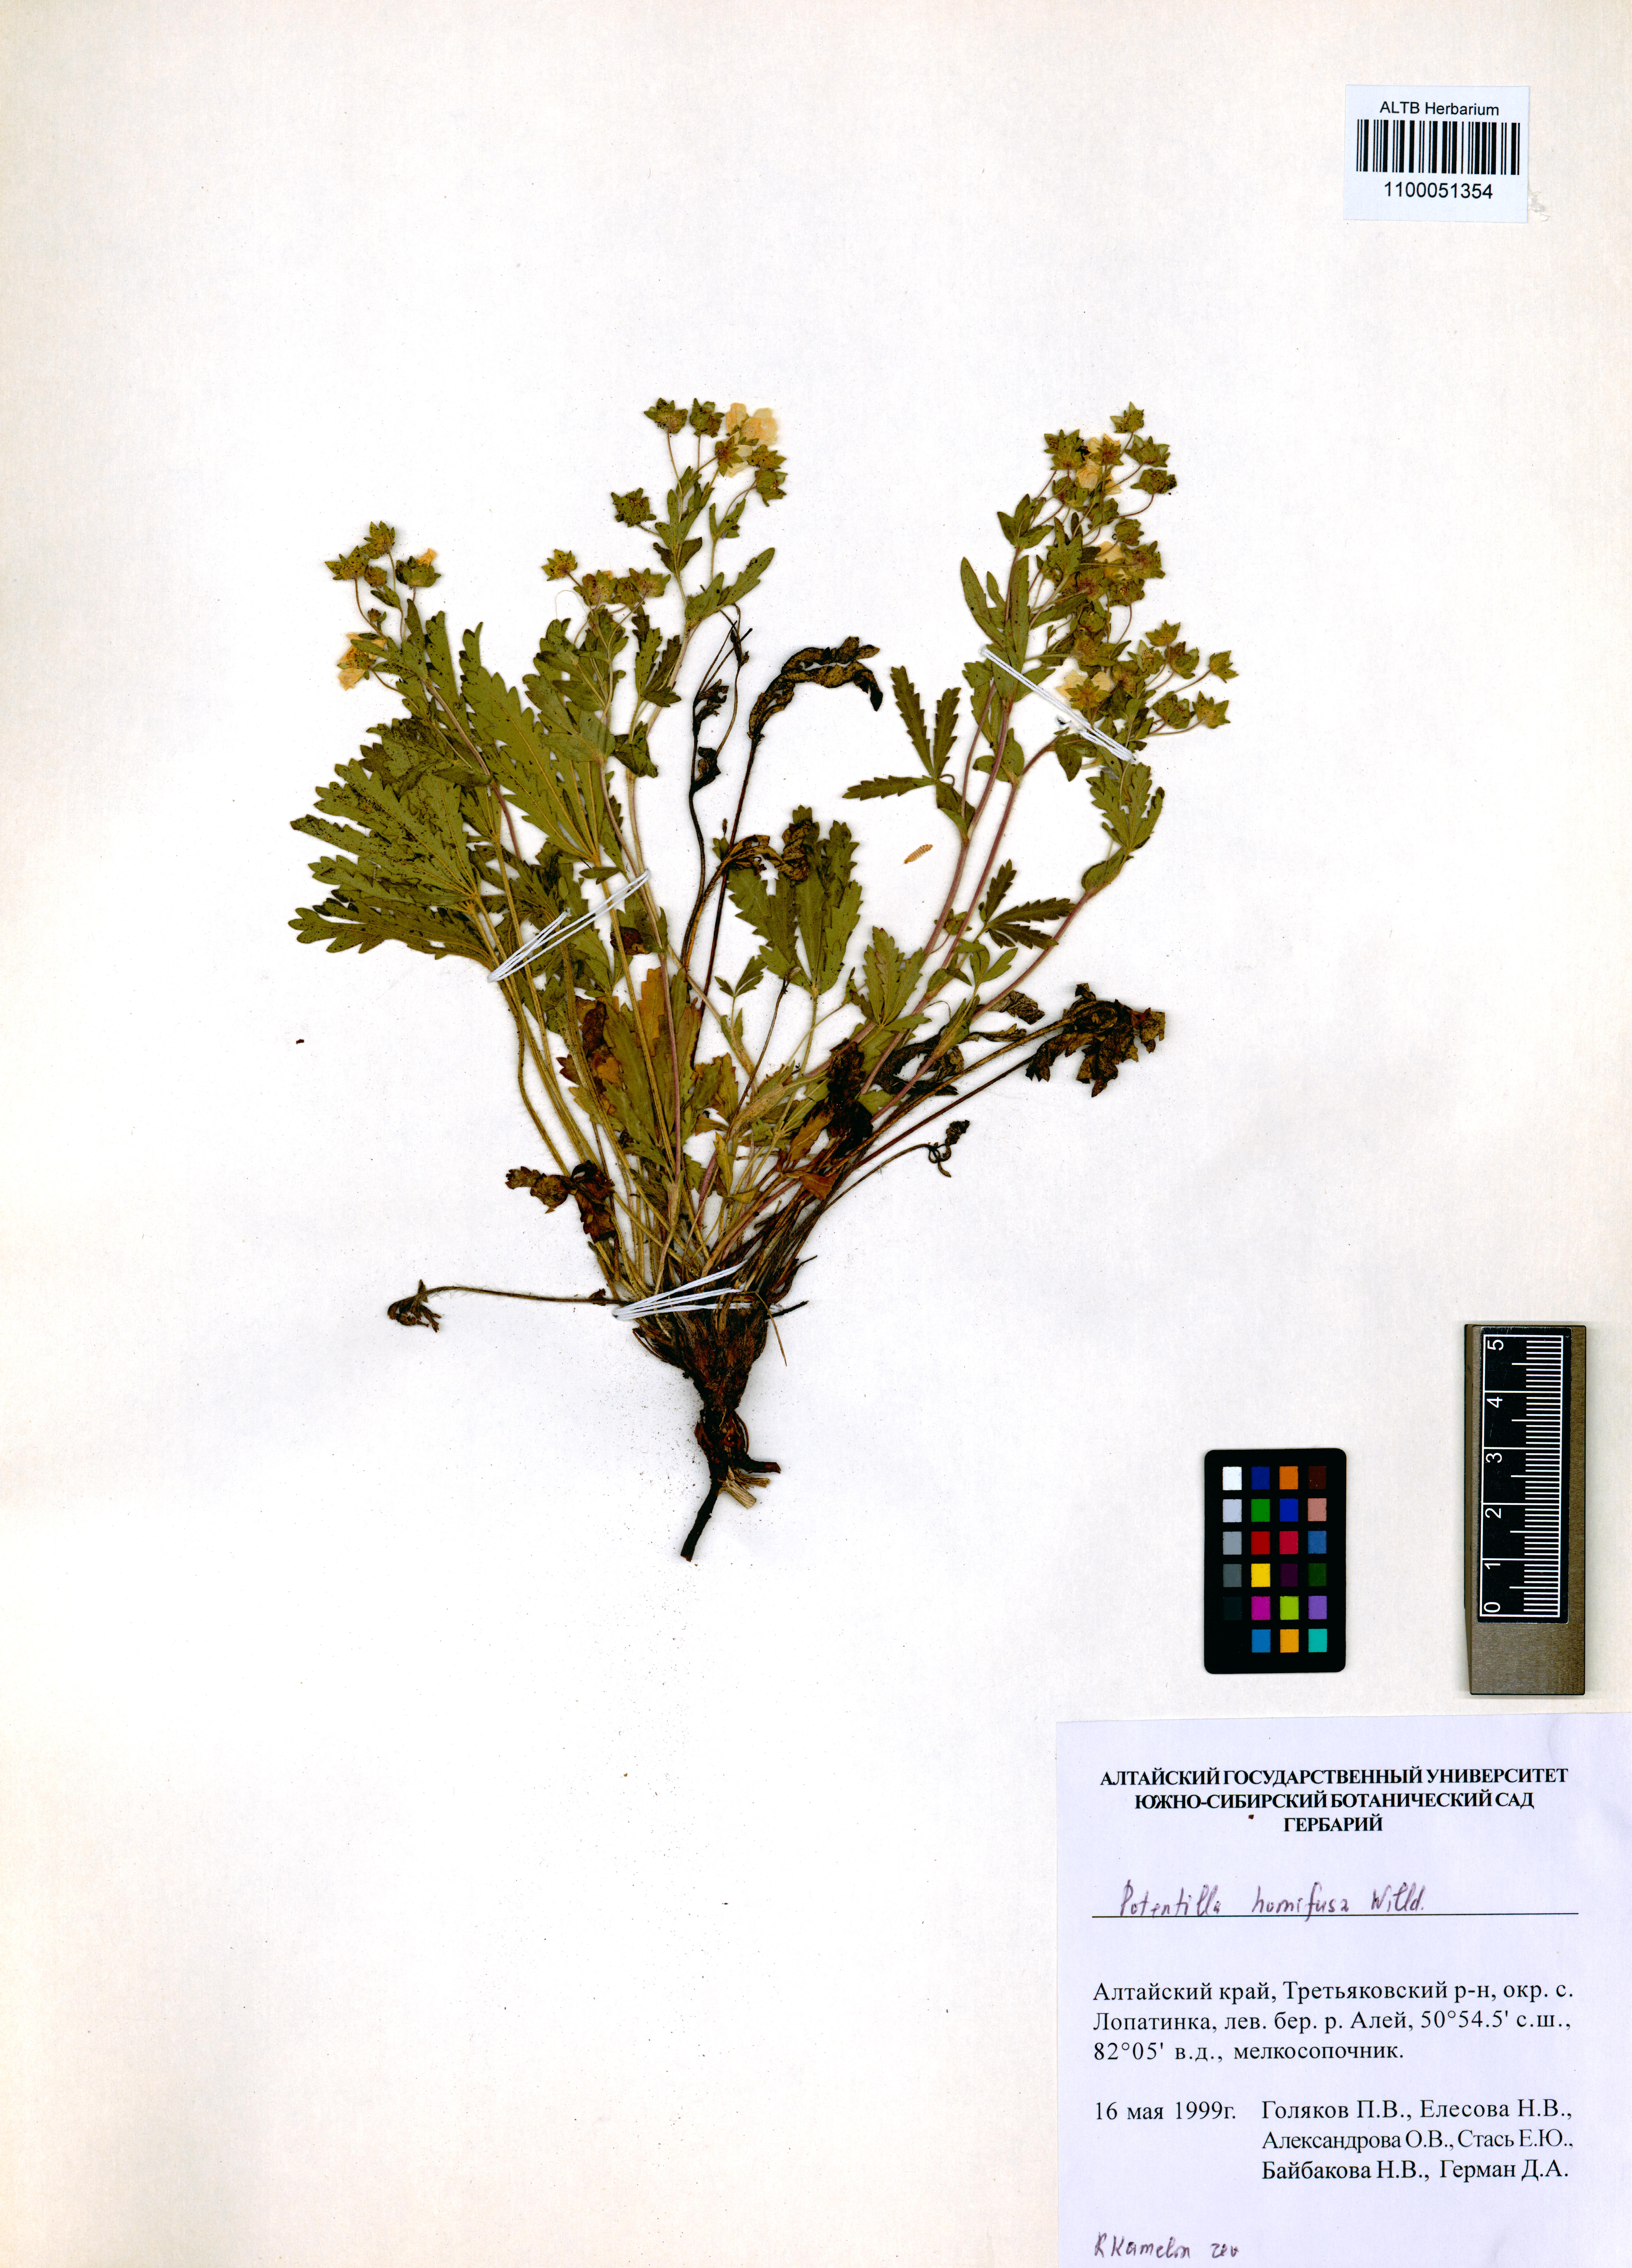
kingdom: Plantae
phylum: Tracheophyta
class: Magnoliopsida
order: Rosales
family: Rosaceae
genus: Potentilla
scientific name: Potentilla humifusa
